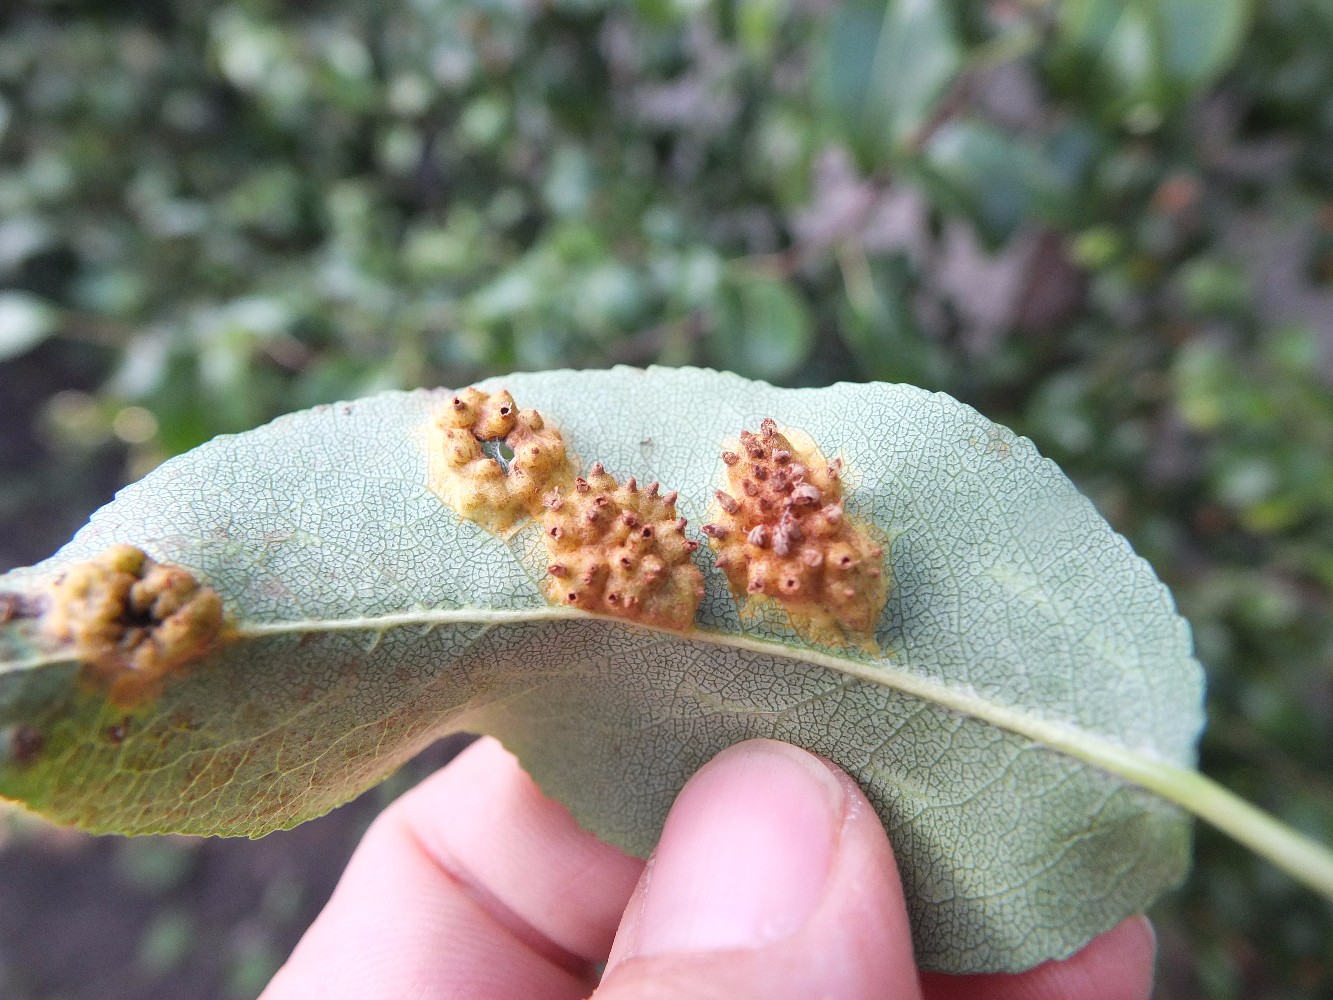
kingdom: Fungi
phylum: Basidiomycota
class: Pucciniomycetes
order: Pucciniales
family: Gymnosporangiaceae
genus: Gymnosporangium
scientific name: Gymnosporangium sabinae
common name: pæregitter-bævrerust
